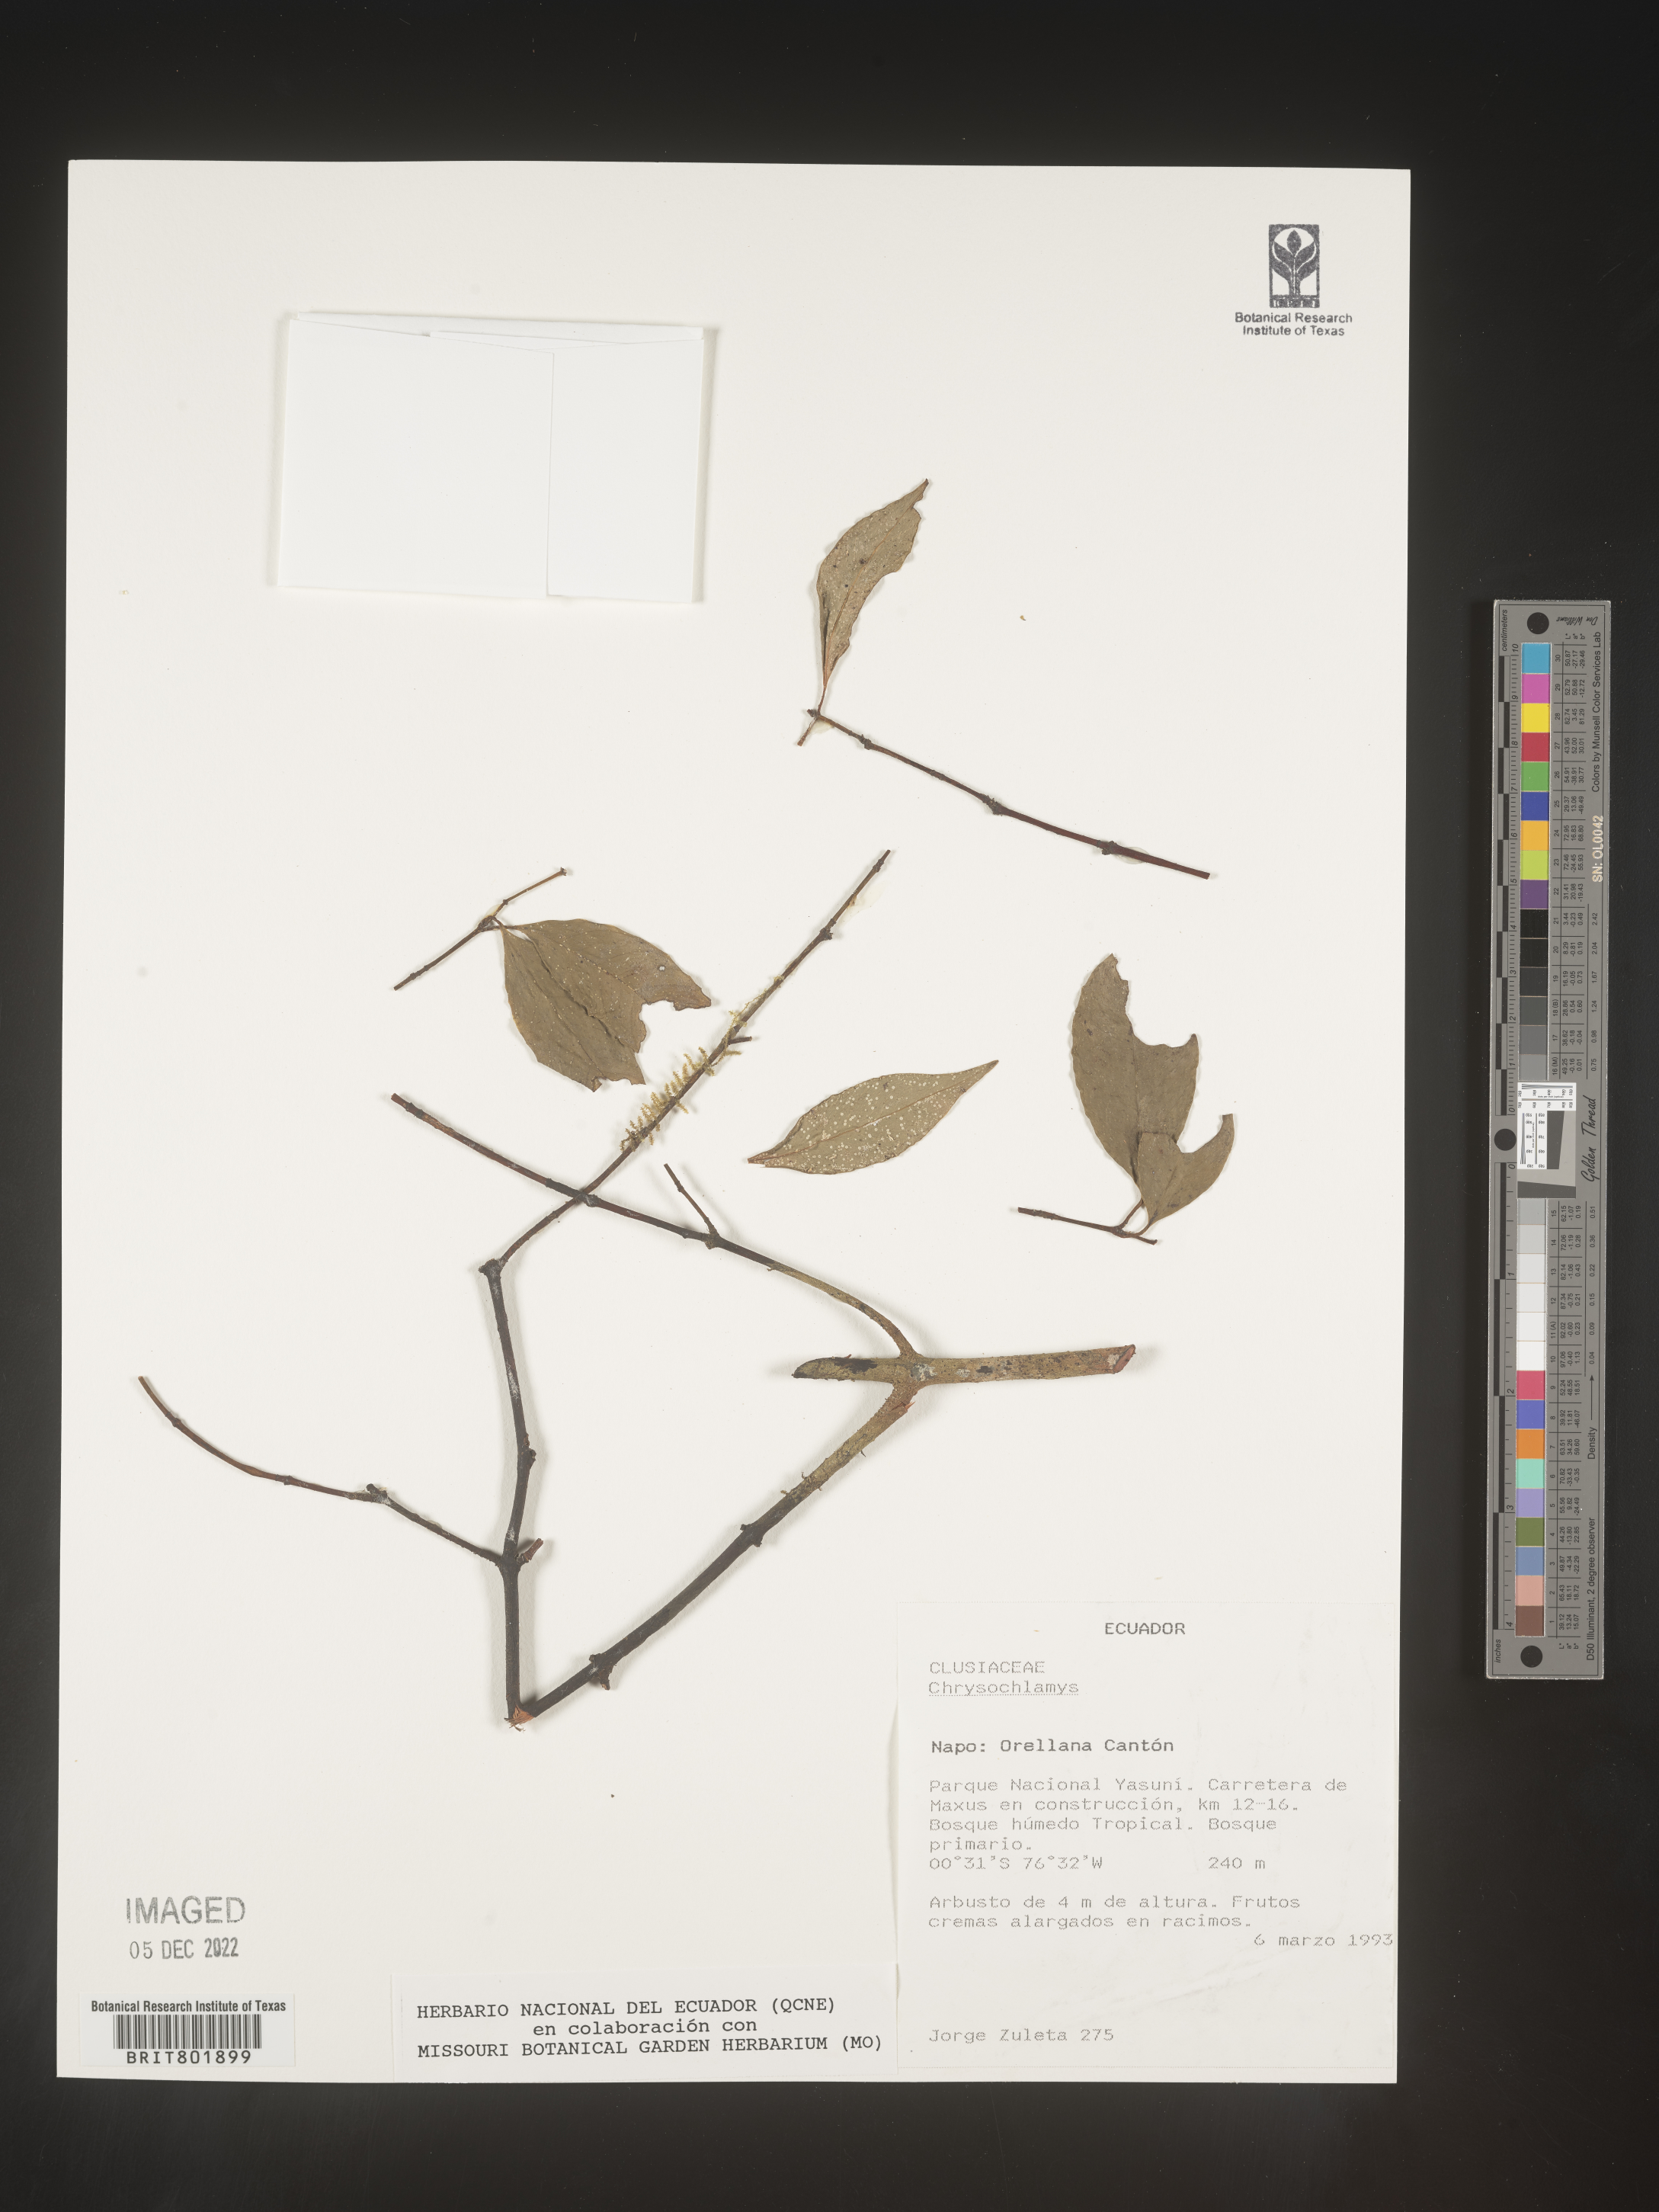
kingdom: Plantae
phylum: Tracheophyta
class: Magnoliopsida
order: Malpighiales
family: Clusiaceae
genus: Chrysochlamys
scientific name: Chrysochlamys
